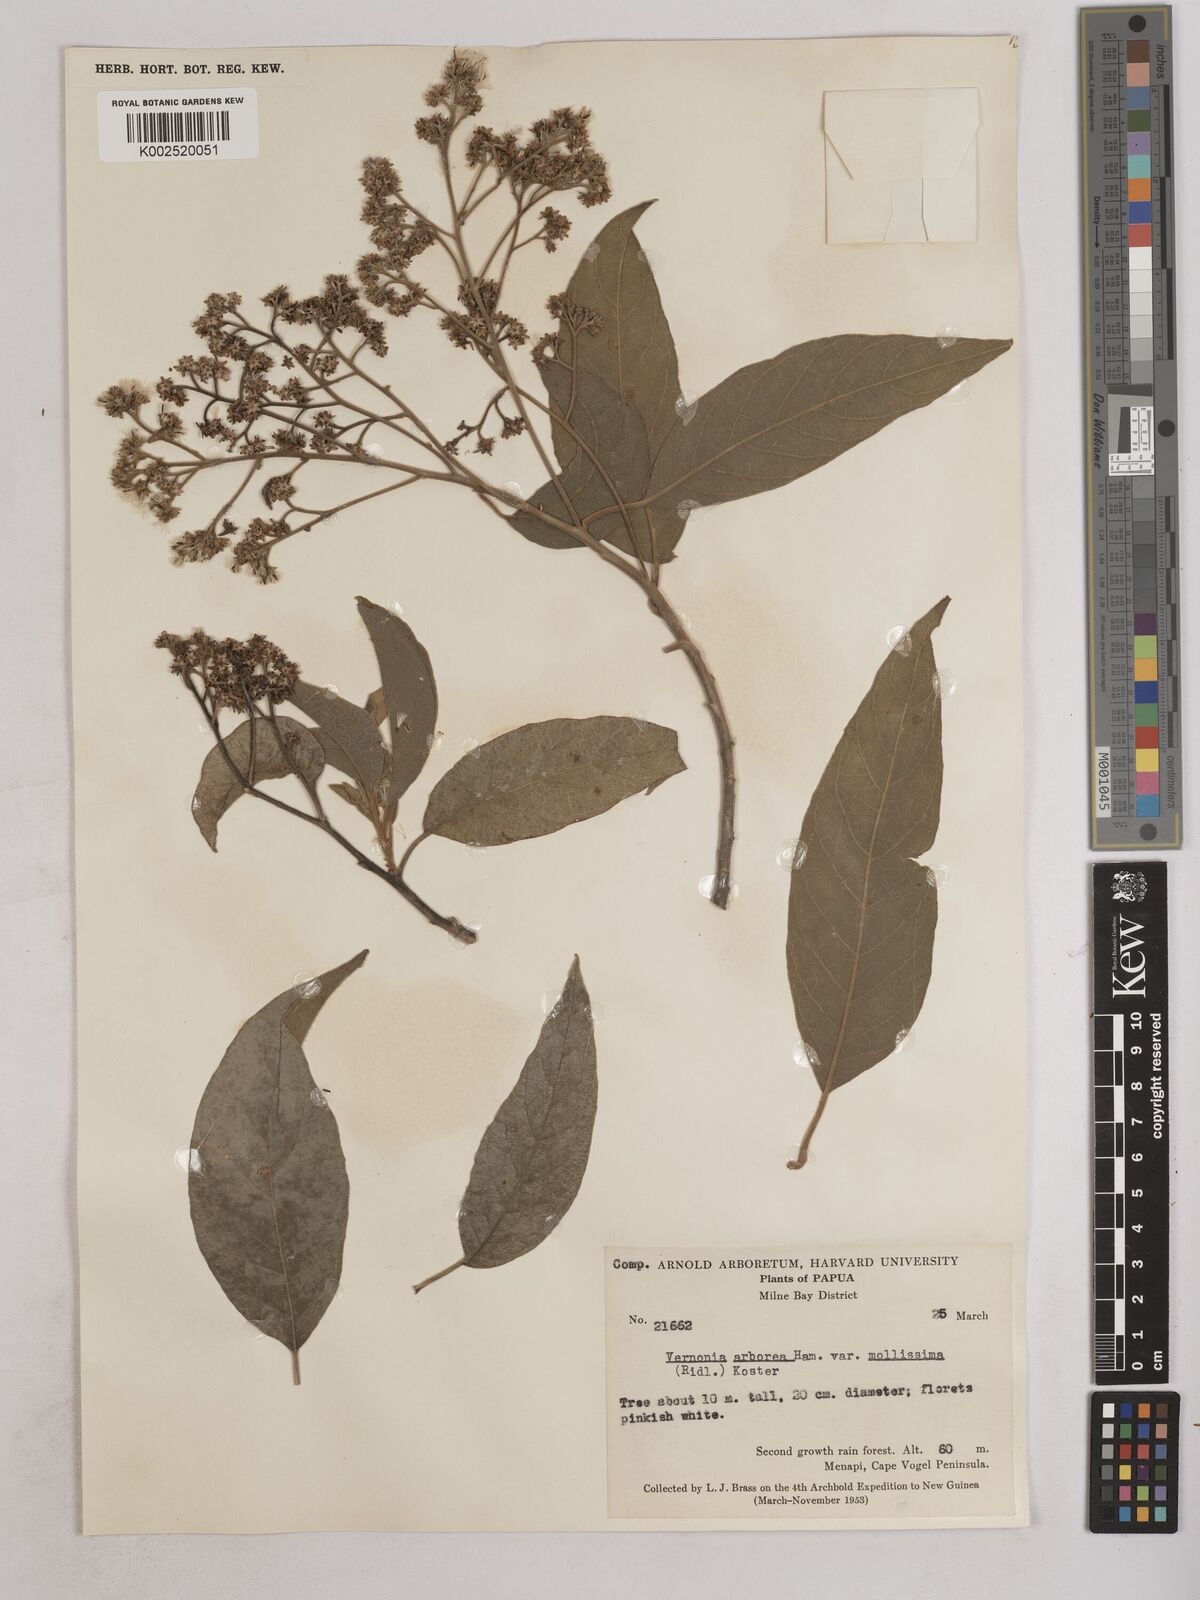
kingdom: Plantae
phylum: Tracheophyta
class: Magnoliopsida
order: Asterales
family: Asteraceae
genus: Strobocalyx
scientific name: Strobocalyx arborea
